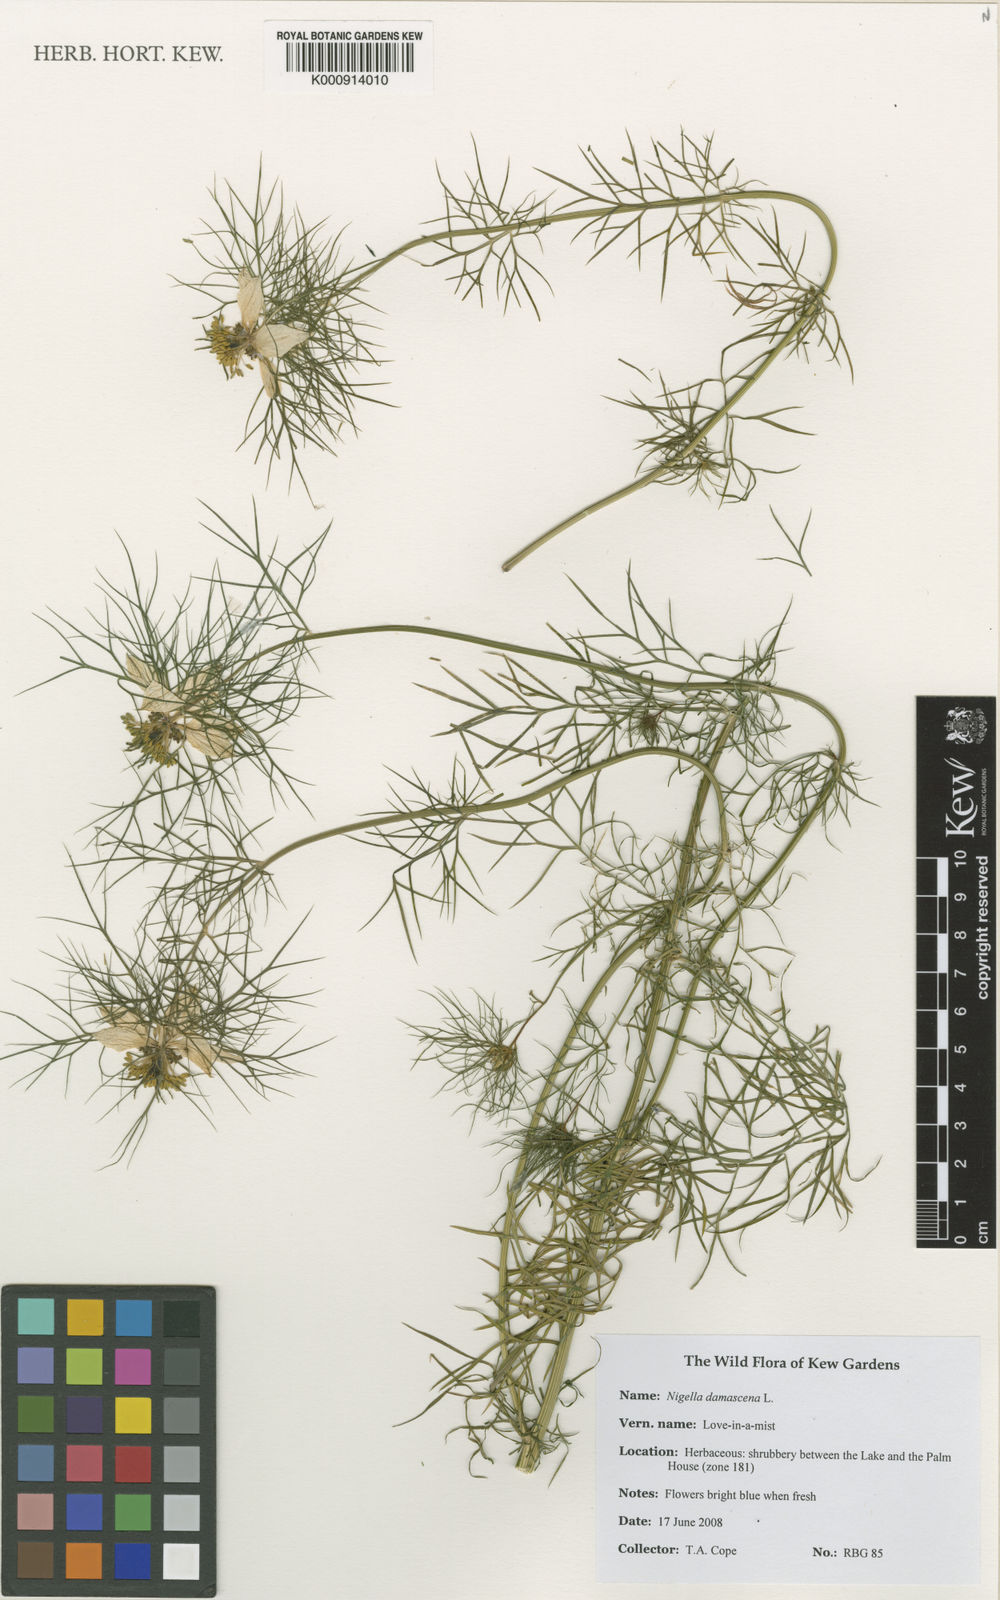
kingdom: Plantae
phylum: Tracheophyta
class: Magnoliopsida
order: Ranunculales
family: Ranunculaceae
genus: Nigella
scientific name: Nigella damascena
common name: Love-in-a-mist
